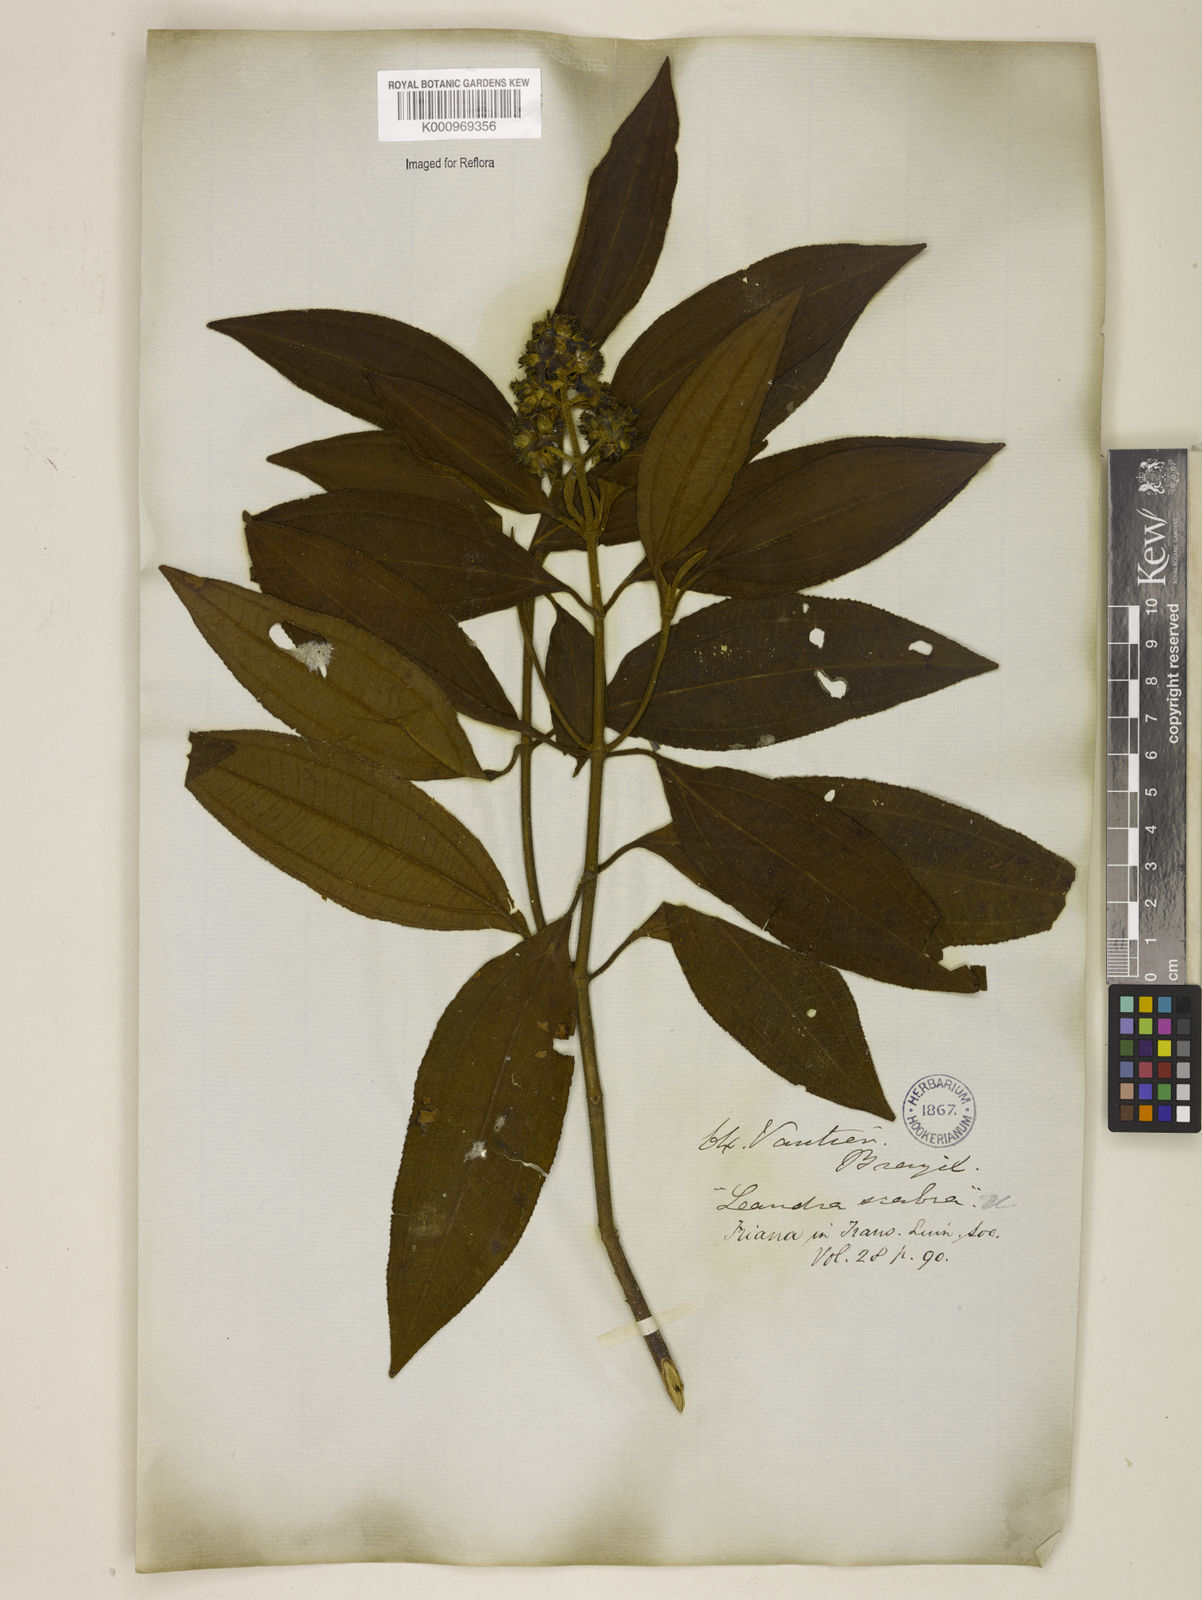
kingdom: Plantae
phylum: Tracheophyta
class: Magnoliopsida
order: Myrtales
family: Melastomataceae
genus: Miconia
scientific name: Miconia melastomoides
